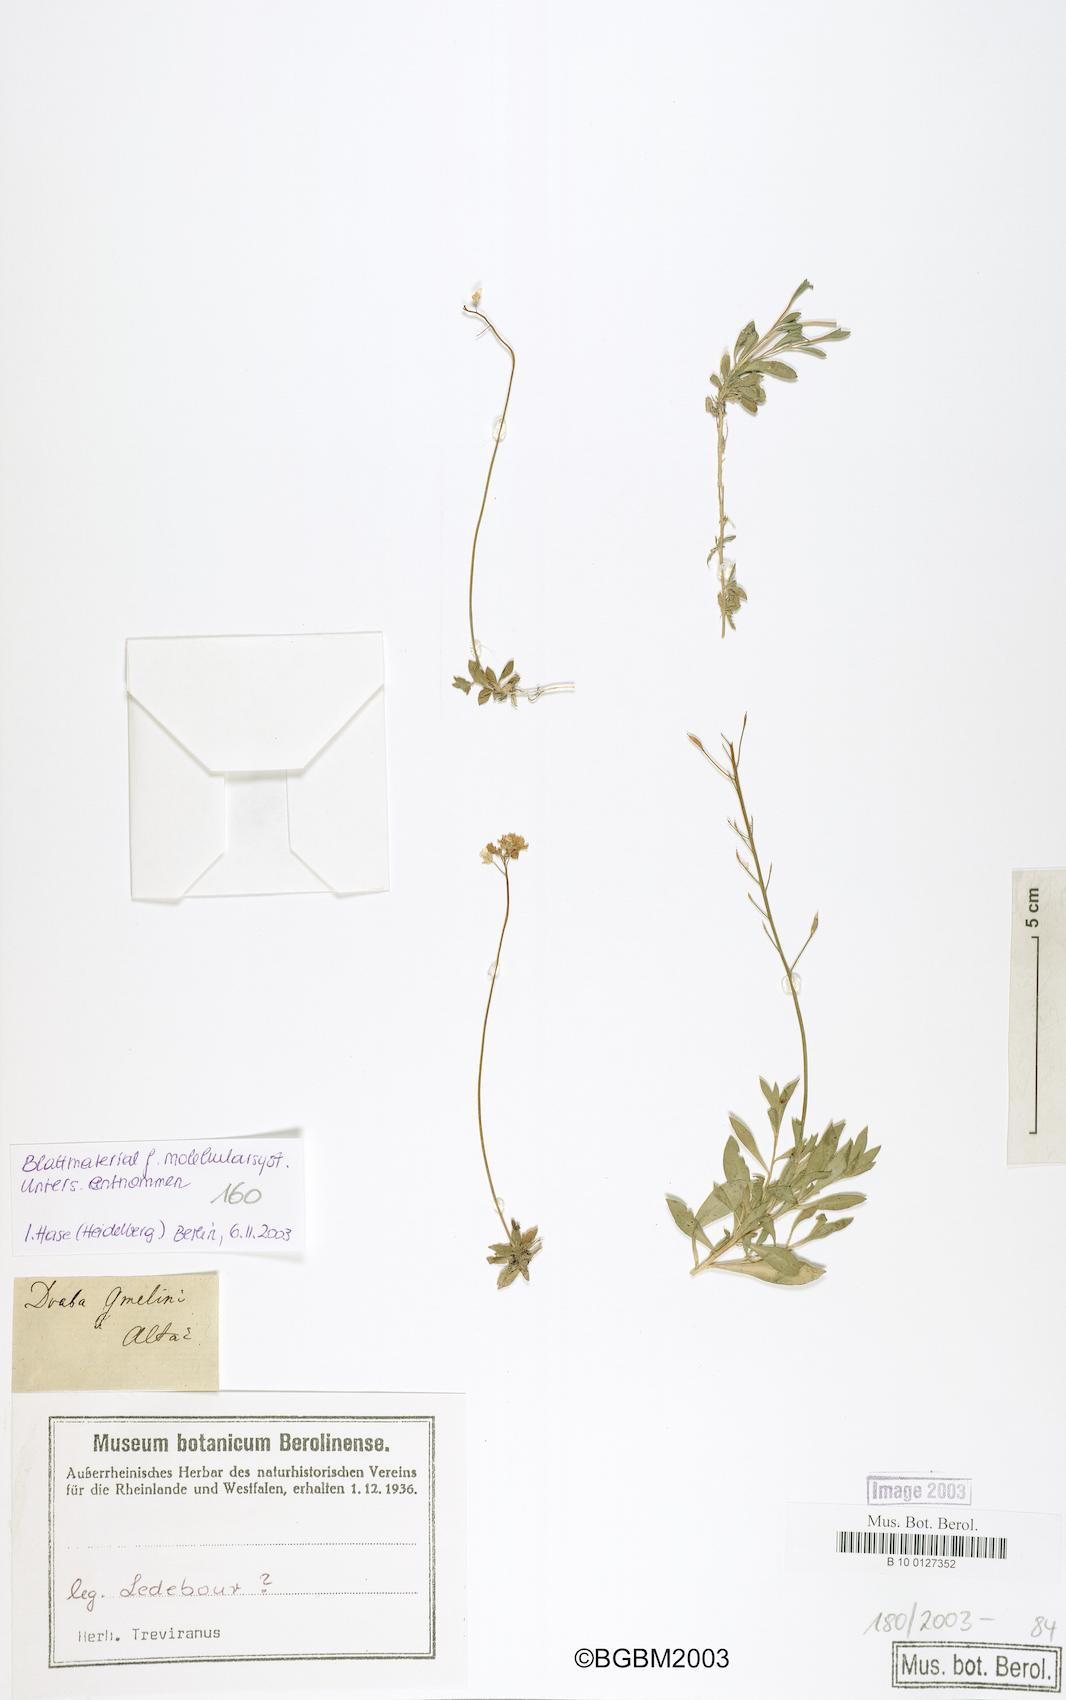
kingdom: Plantae
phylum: Tracheophyta
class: Magnoliopsida
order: Brassicales
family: Brassicaceae
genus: Draba
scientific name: Draba sibirica
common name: Siberian draba
